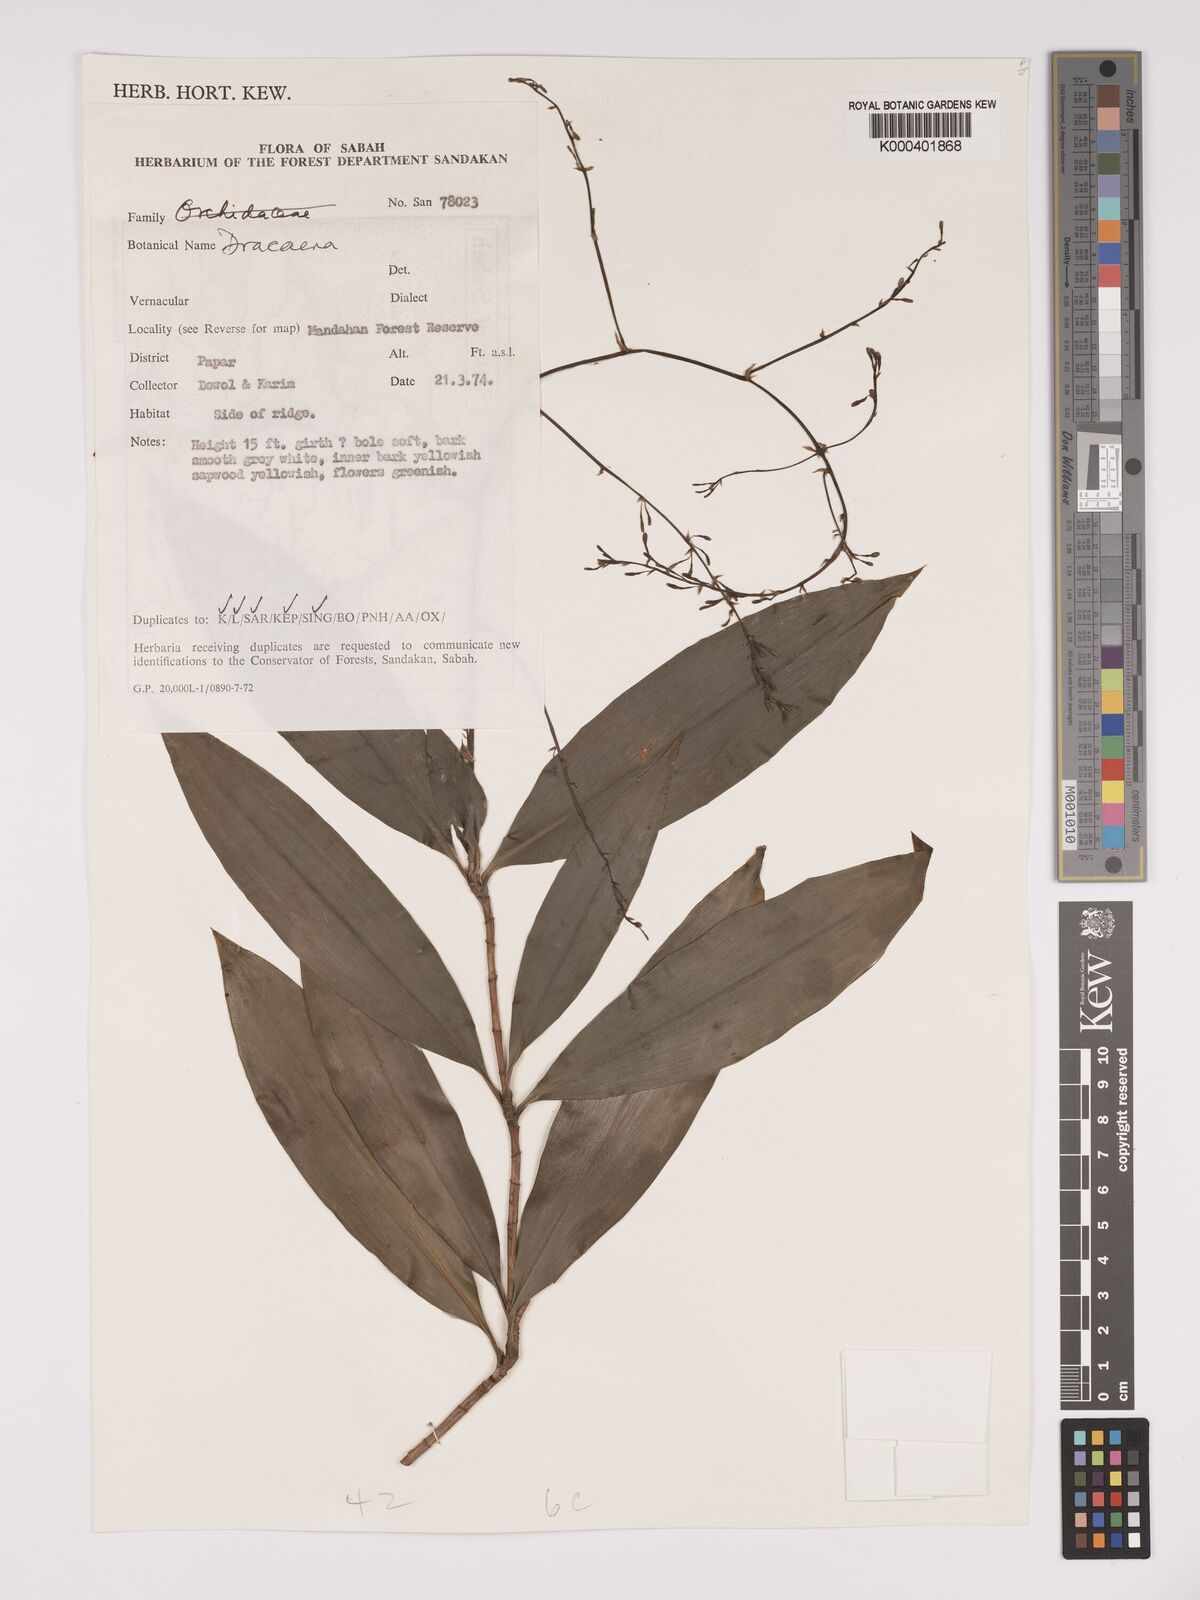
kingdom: Plantae
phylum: Tracheophyta
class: Liliopsida
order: Asparagales
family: Asparagaceae
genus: Dracaena
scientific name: Dracaena
